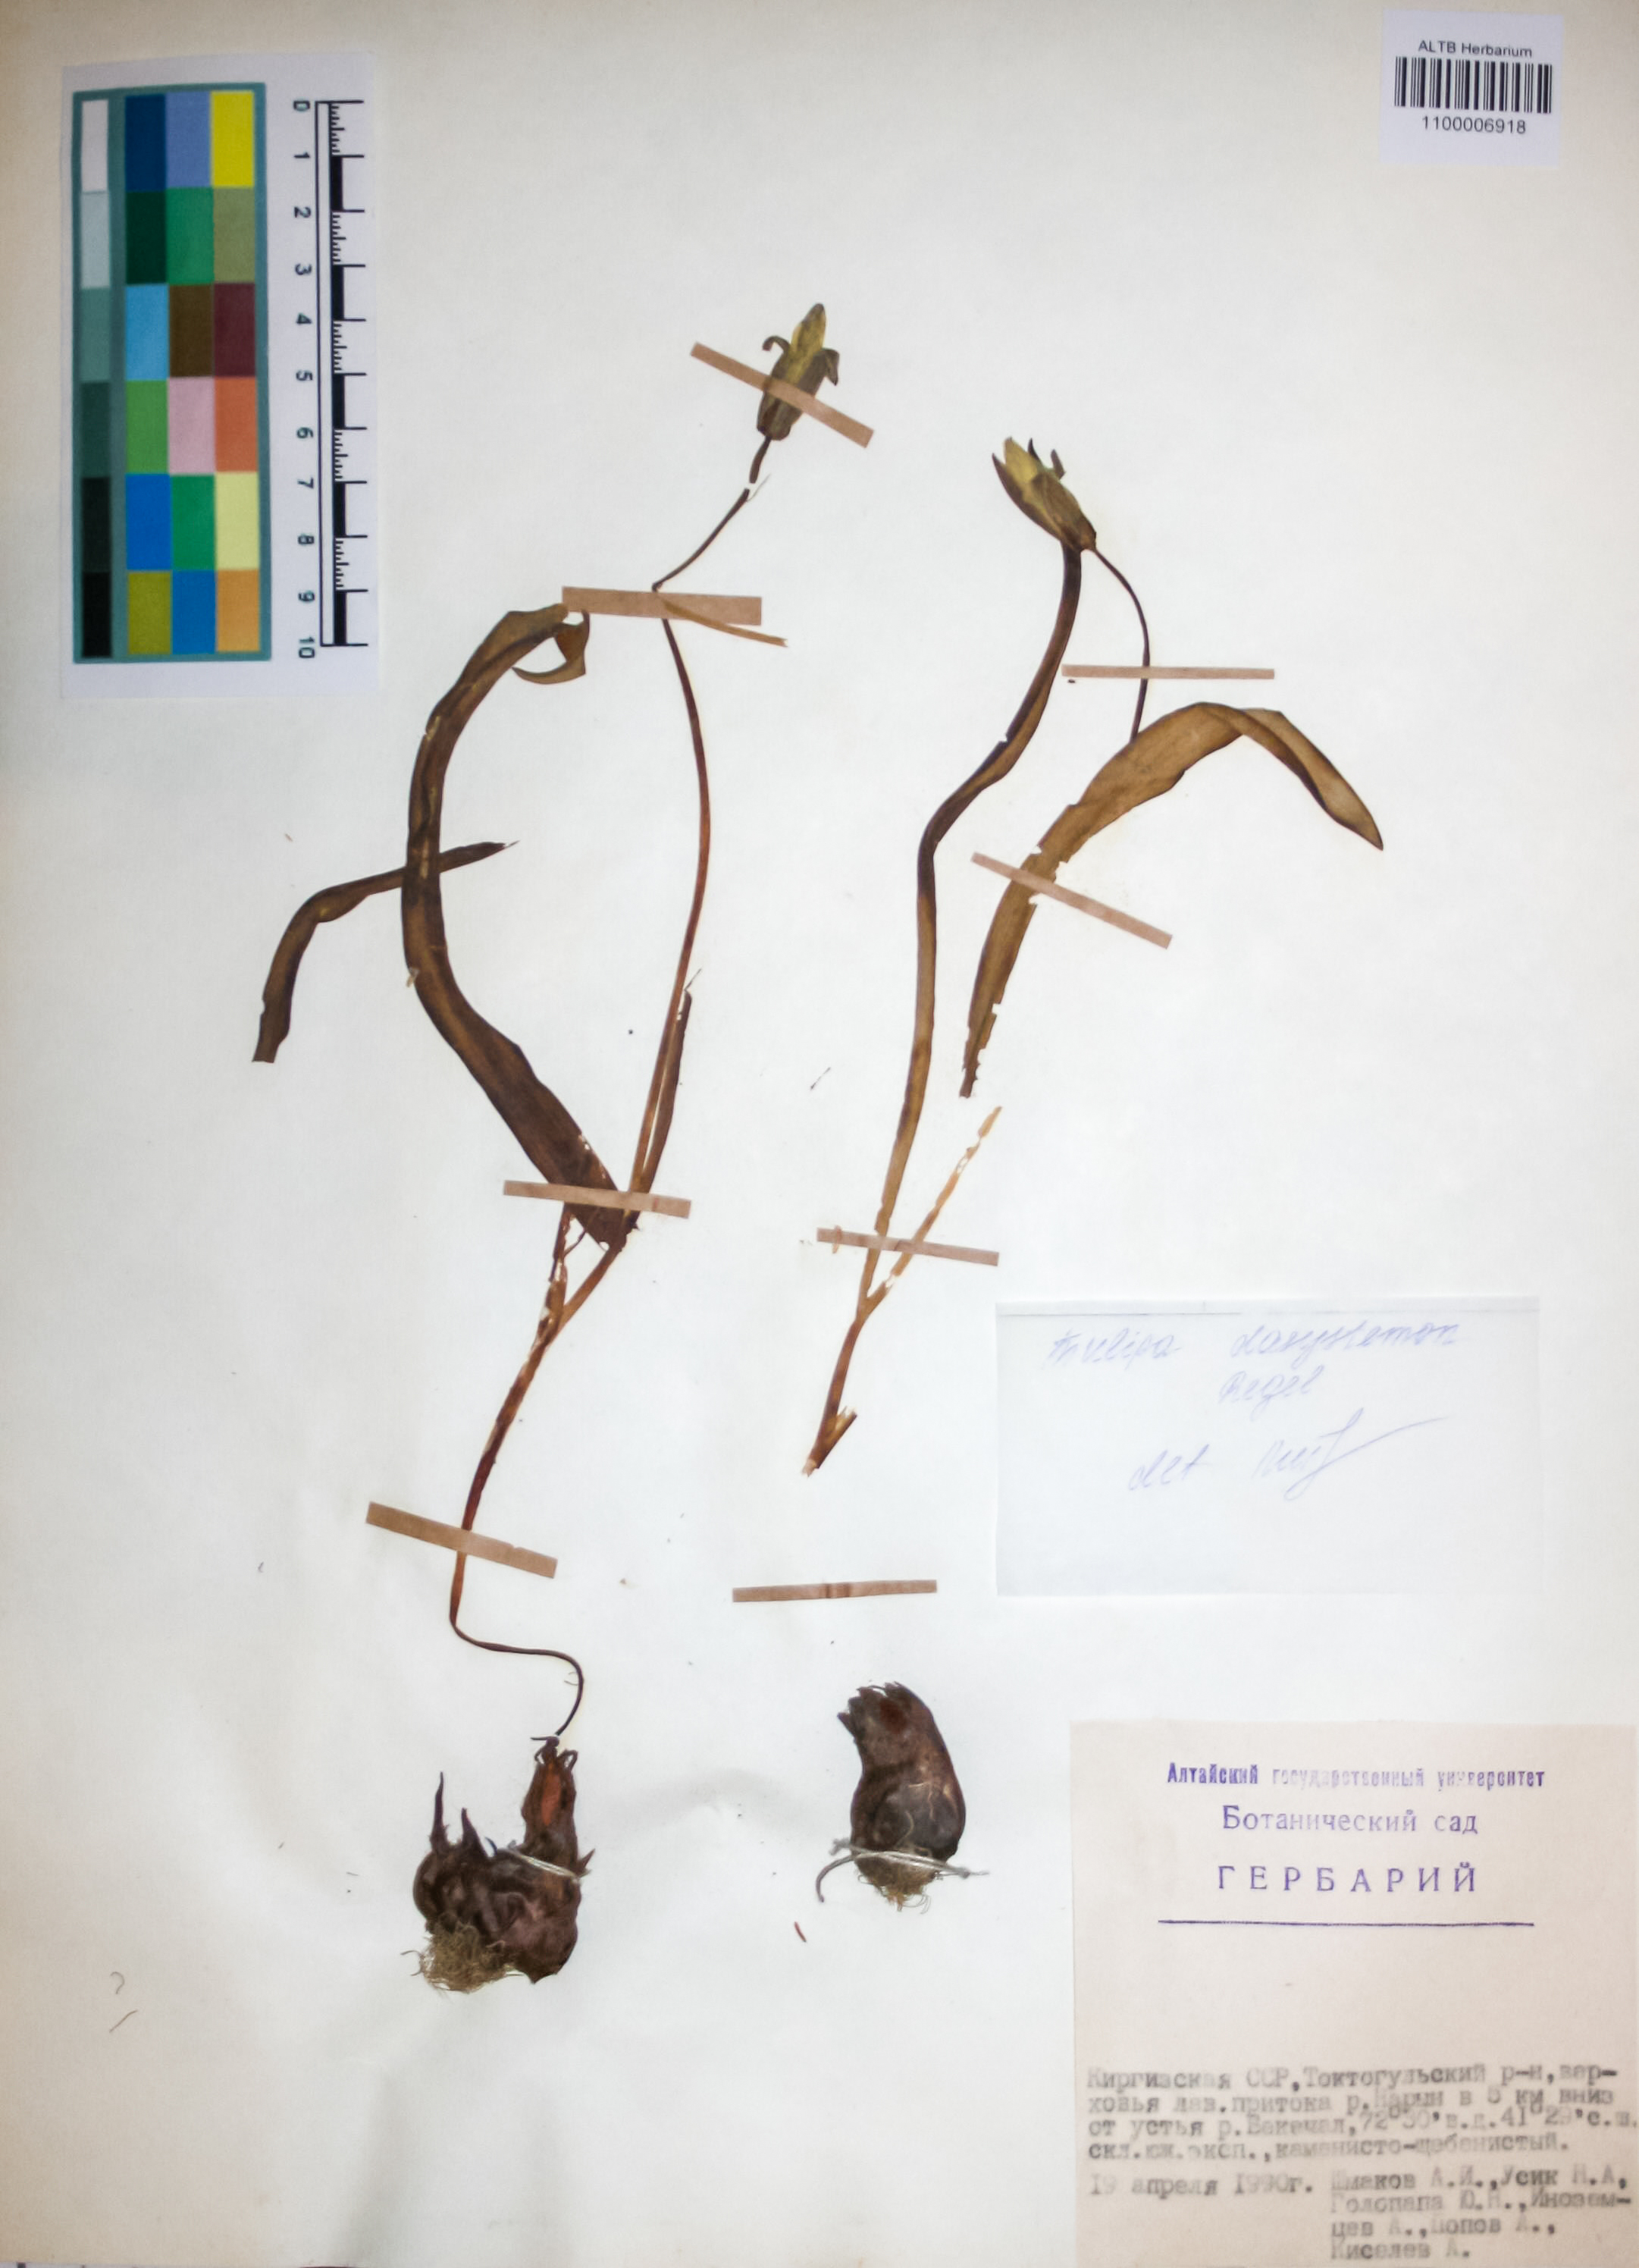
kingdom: Plantae
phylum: Tracheophyta
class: Liliopsida
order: Liliales
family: Liliaceae
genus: Tulipa
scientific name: Tulipa dasystemon
